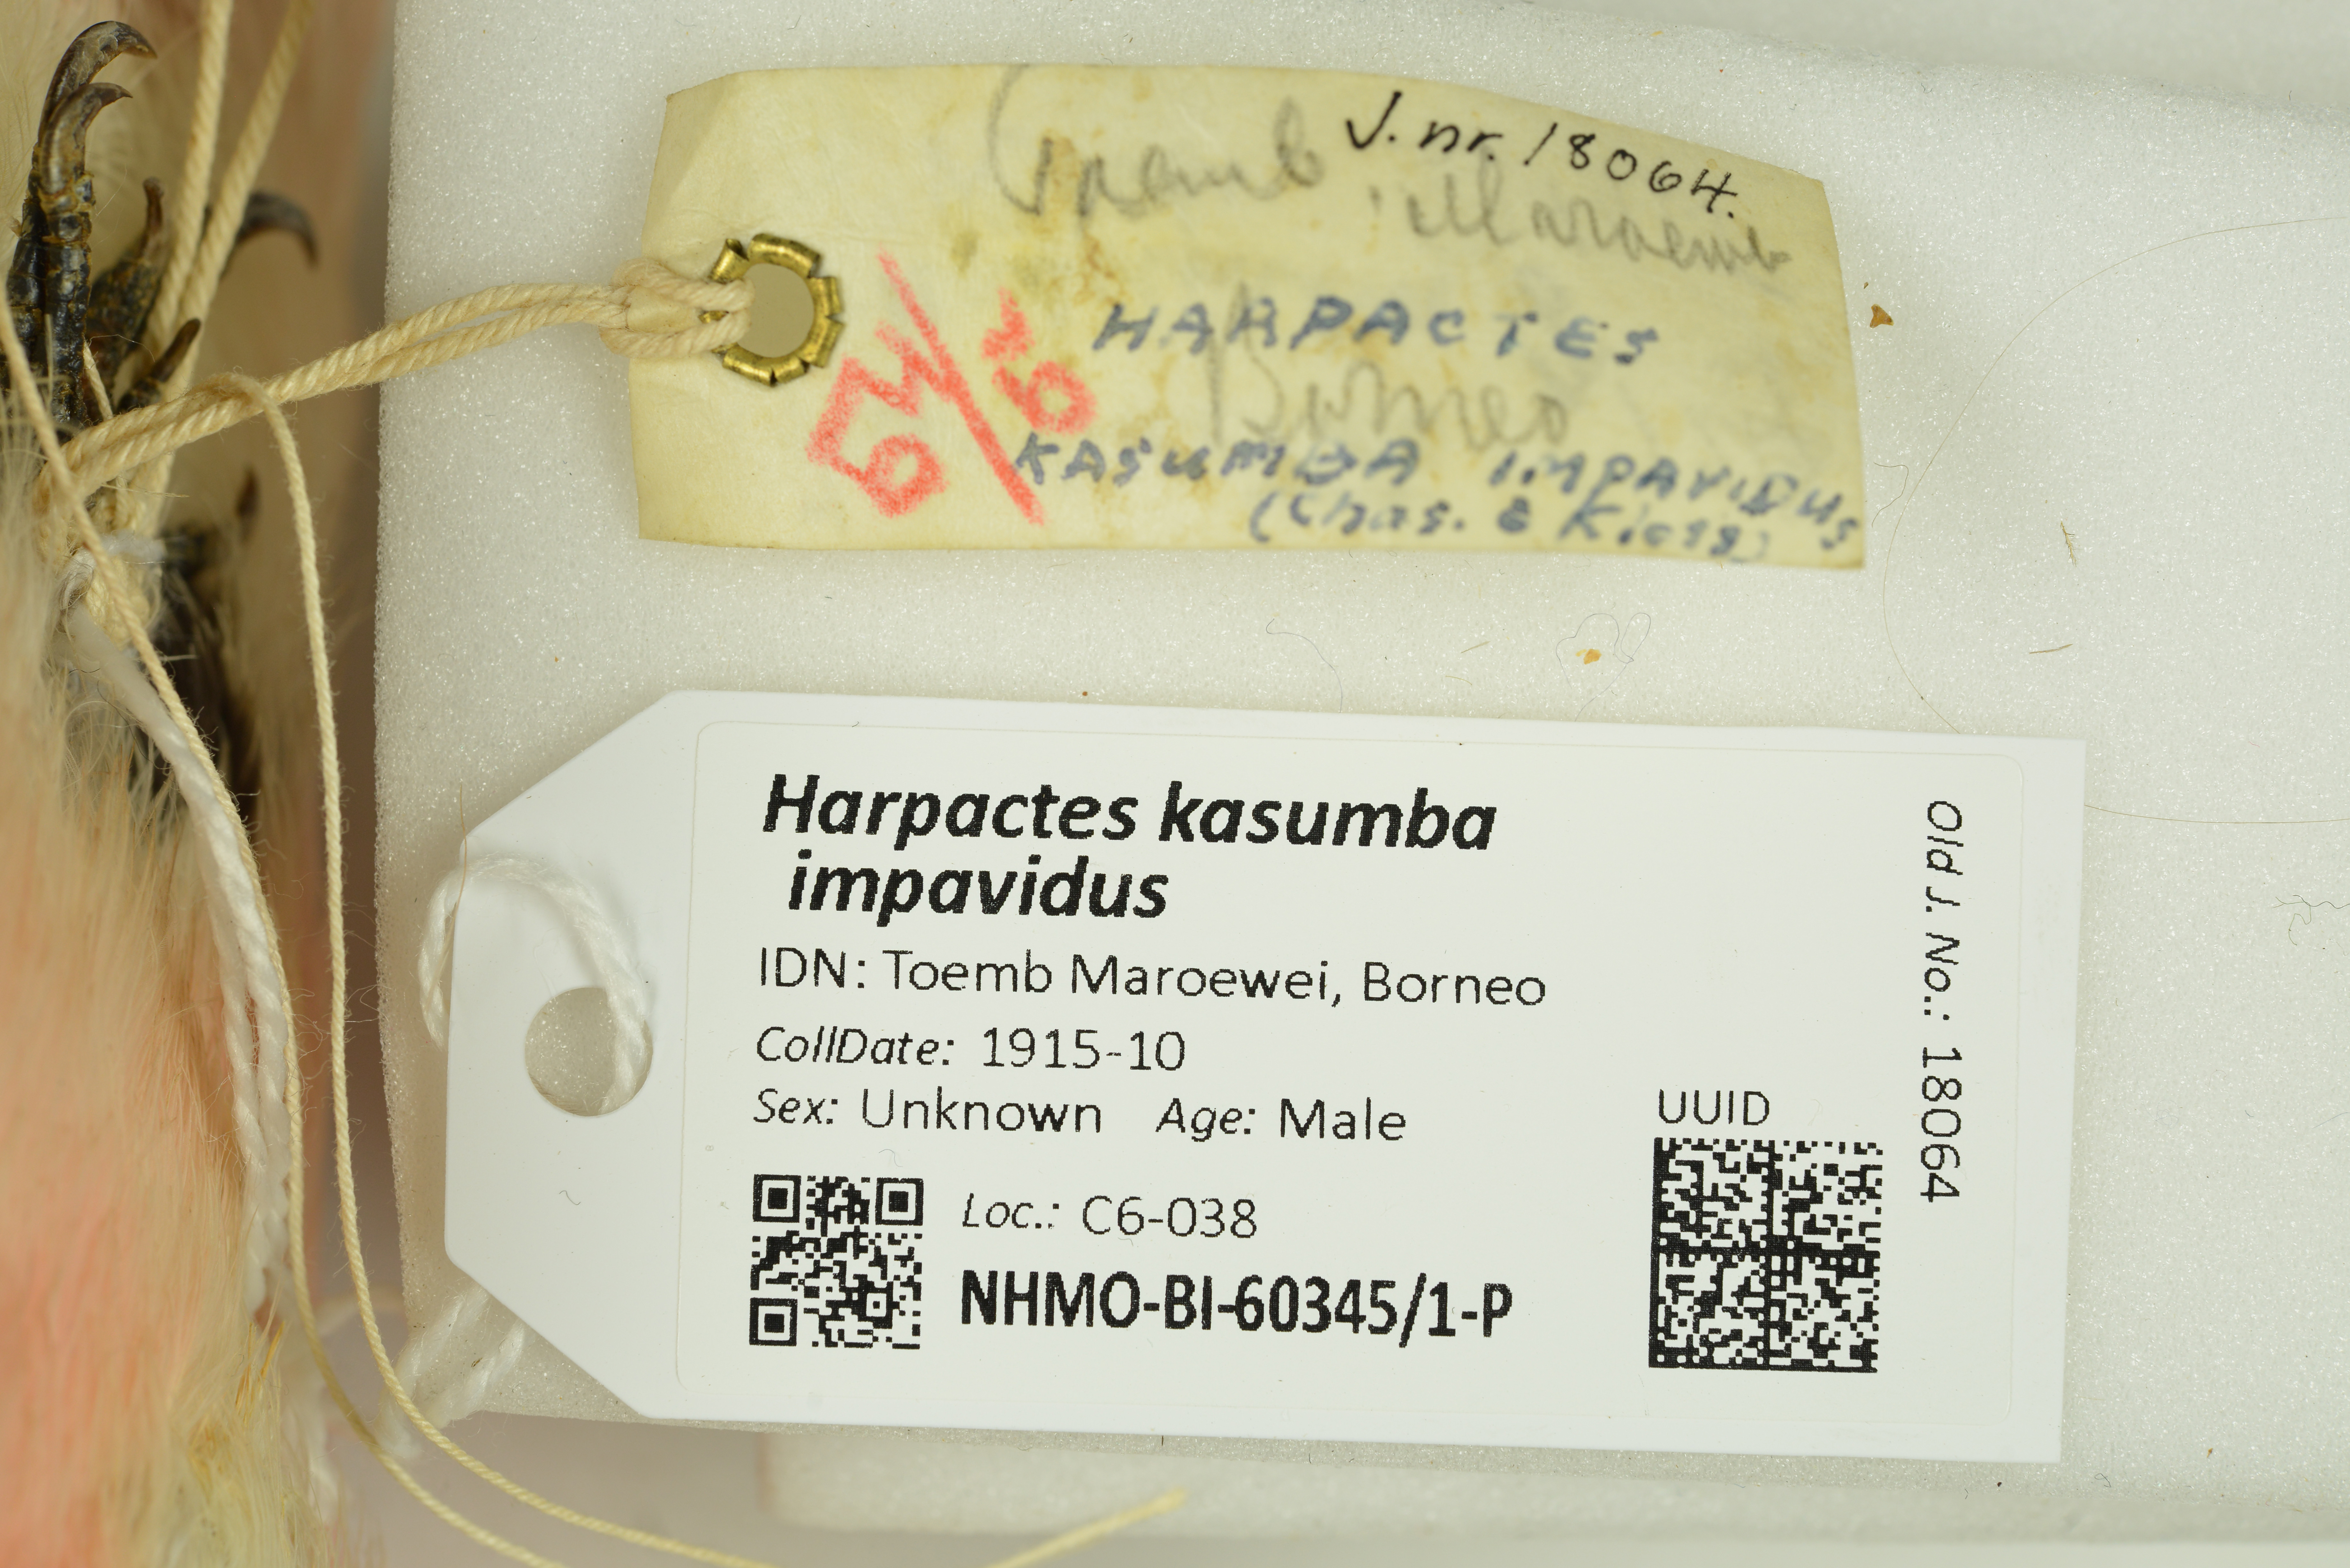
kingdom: Animalia
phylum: Chordata
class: Aves
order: Trogoniformes
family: Trogonidae
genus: Harpactes
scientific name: Harpactes kasumba
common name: Red-naped trogon
